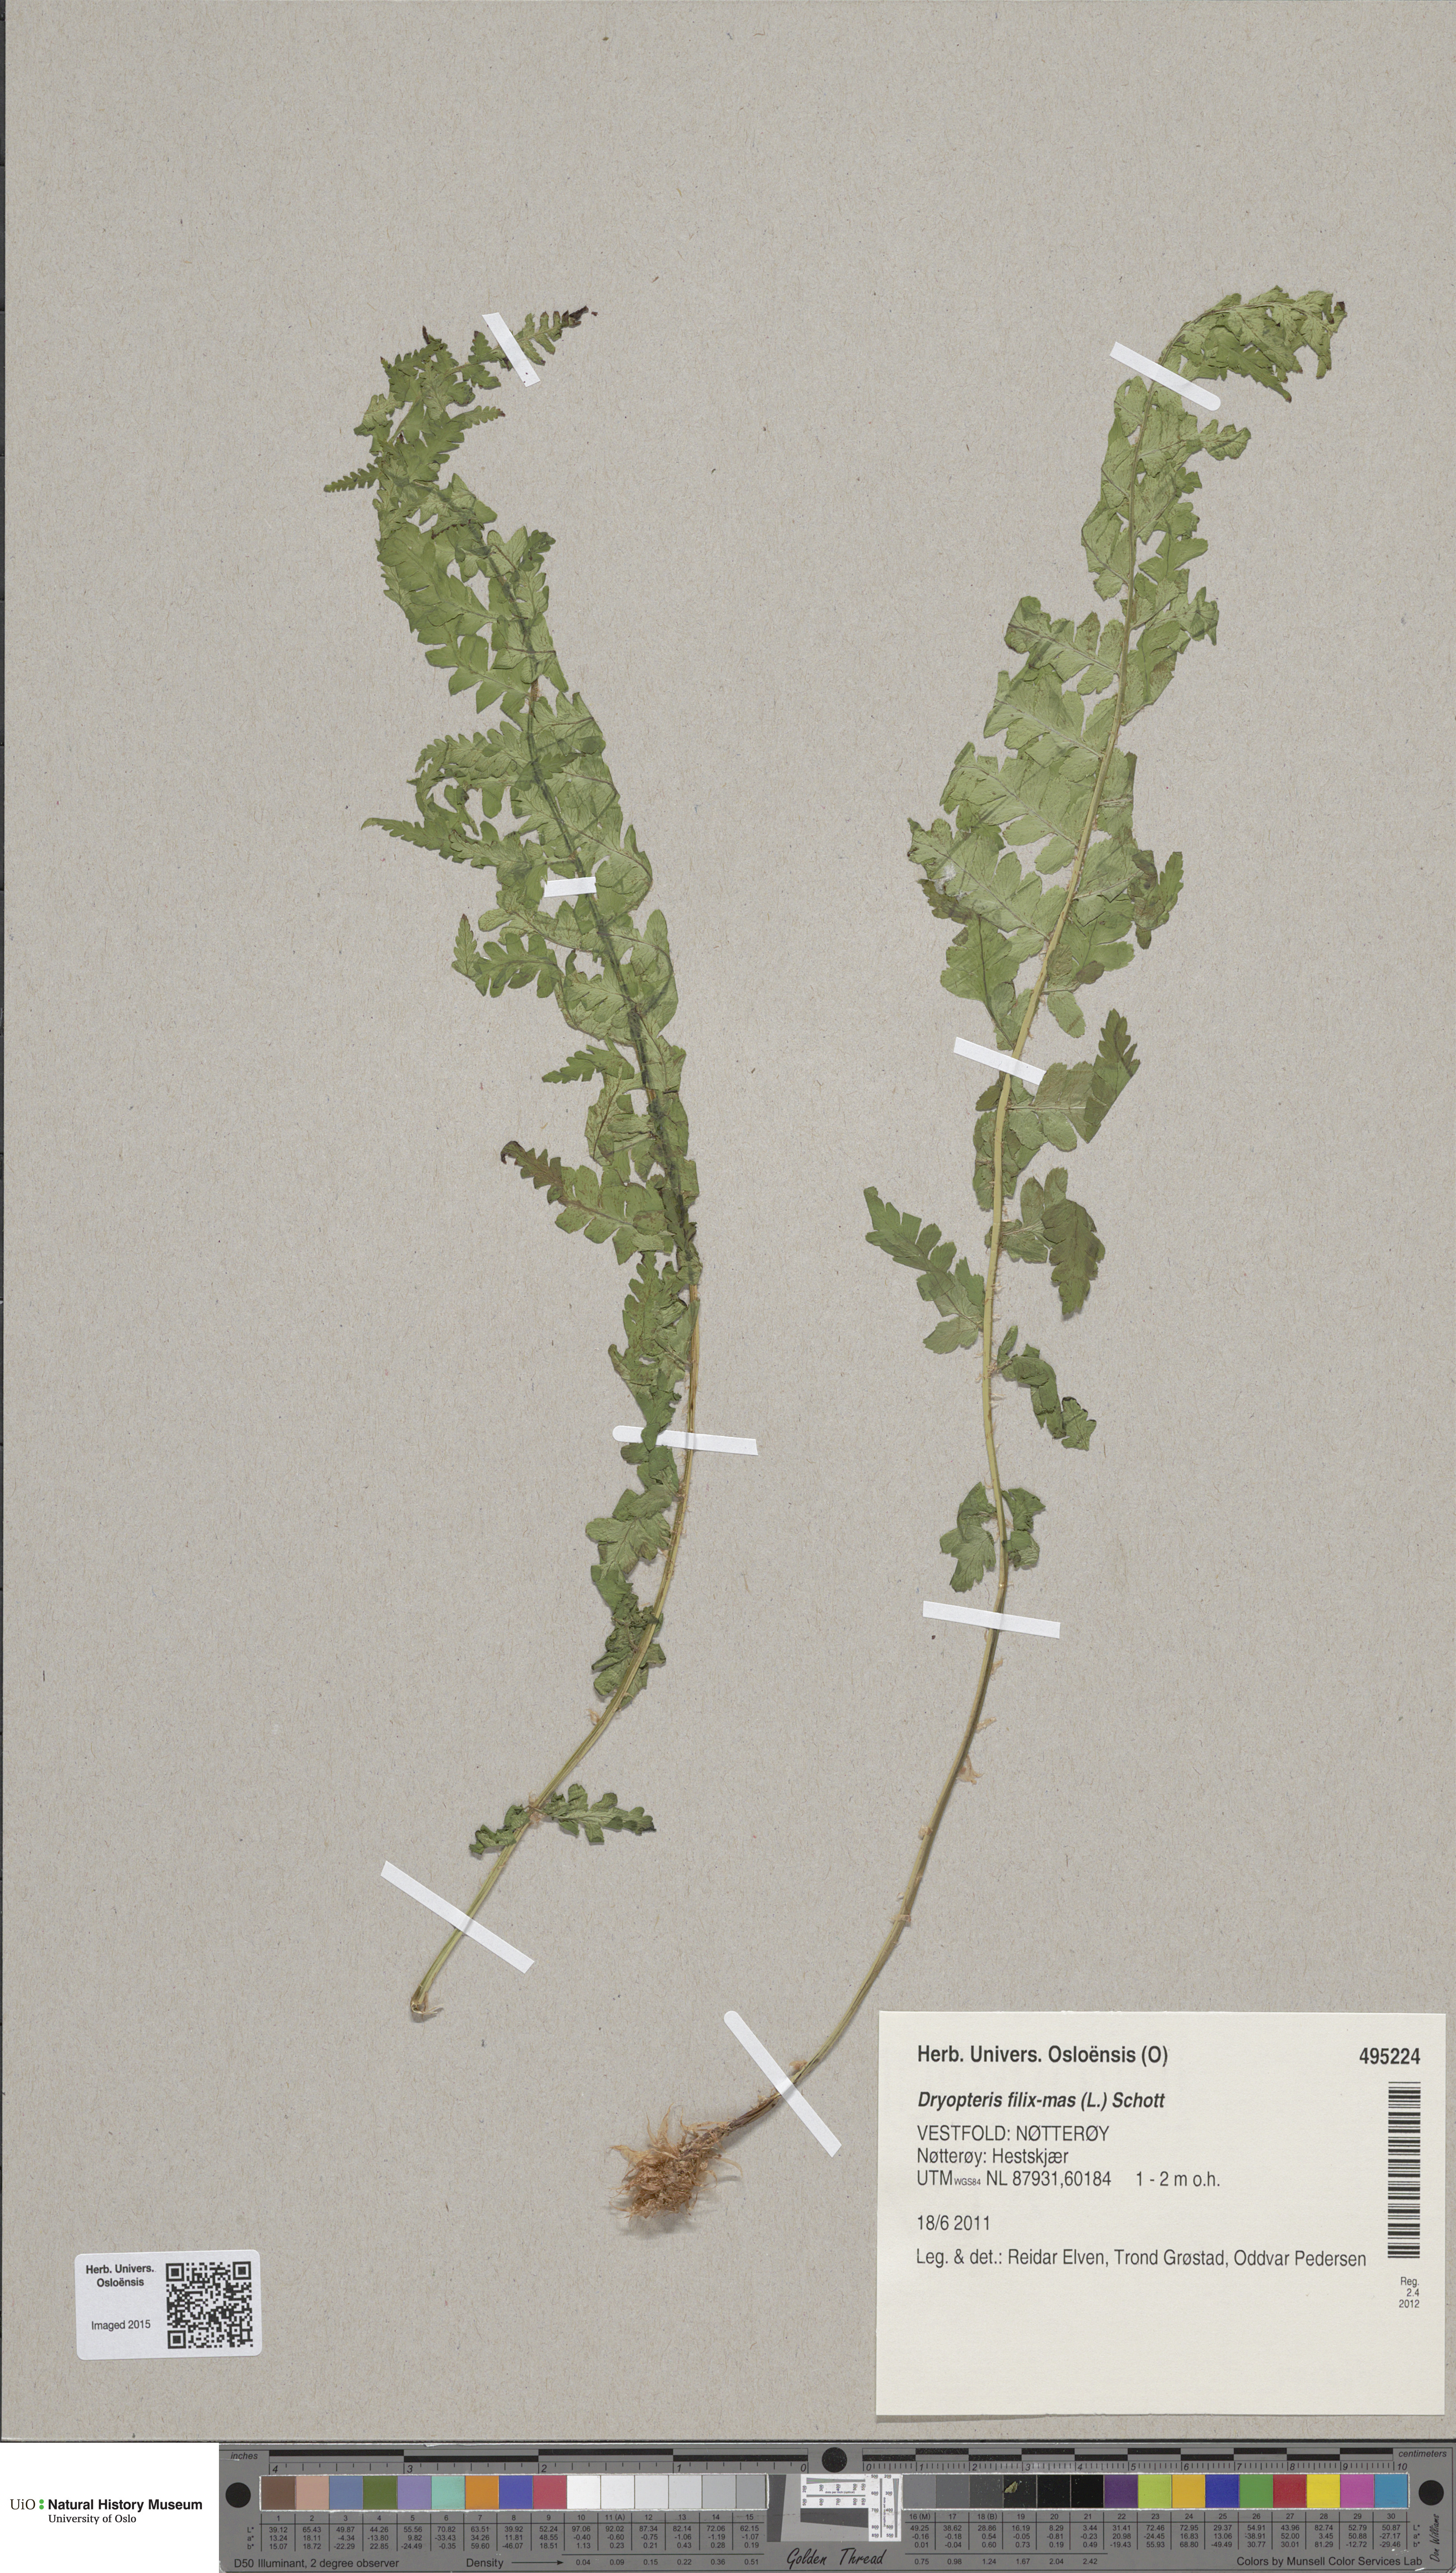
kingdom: Plantae
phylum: Tracheophyta
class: Polypodiopsida
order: Polypodiales
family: Dryopteridaceae
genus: Dryopteris
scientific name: Dryopteris filix-mas
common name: Male fern
